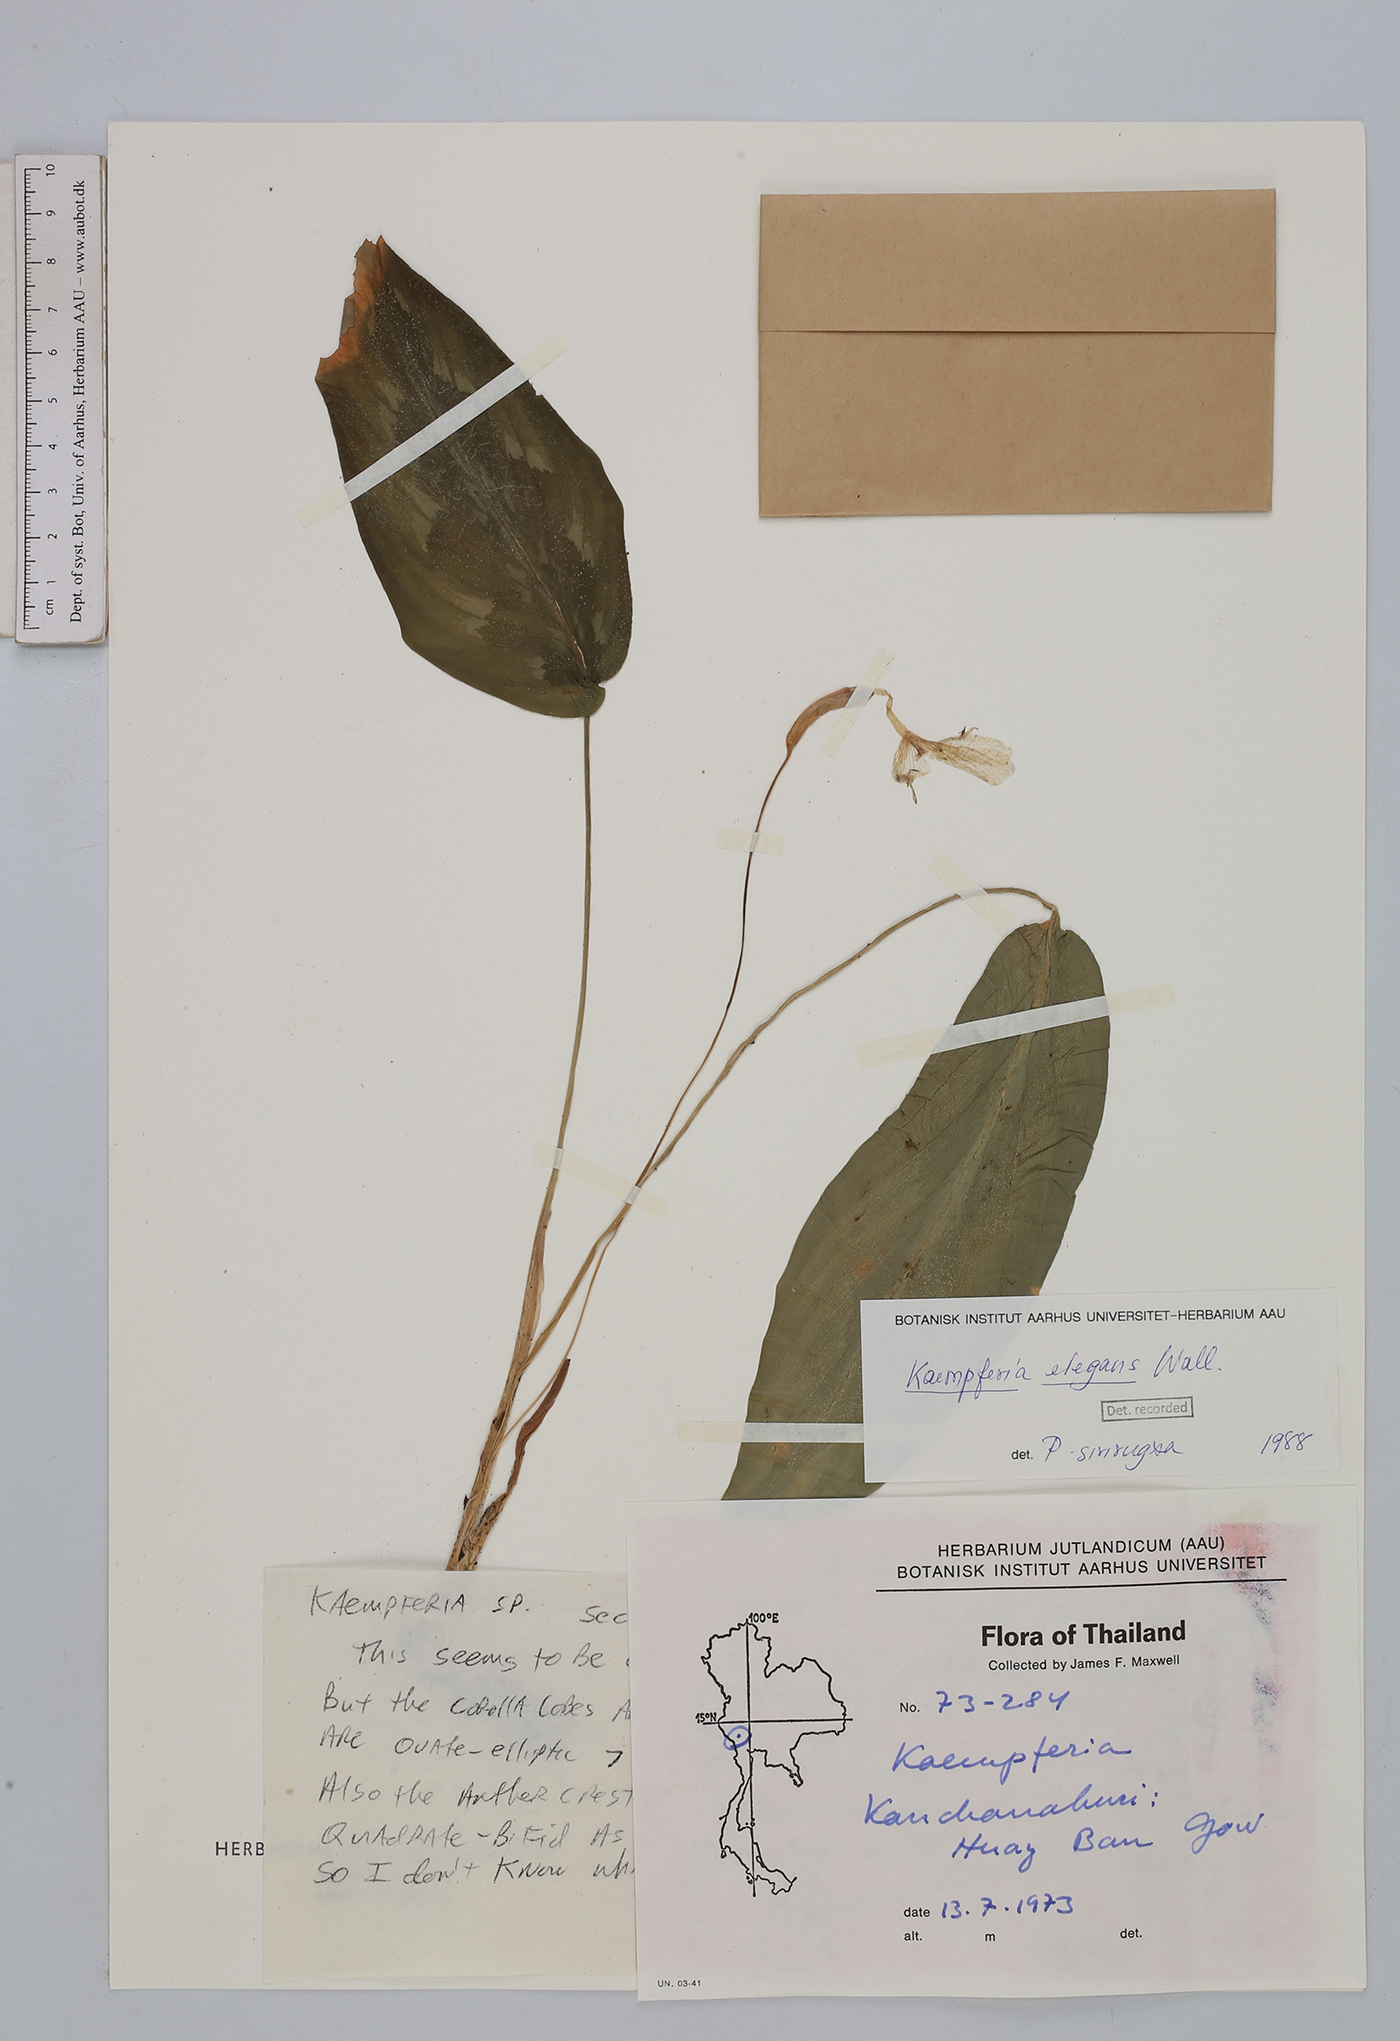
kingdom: Plantae
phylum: Tracheophyta
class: Liliopsida
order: Zingiberales
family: Zingiberaceae
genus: Kaempferia
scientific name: Kaempferia elegans
